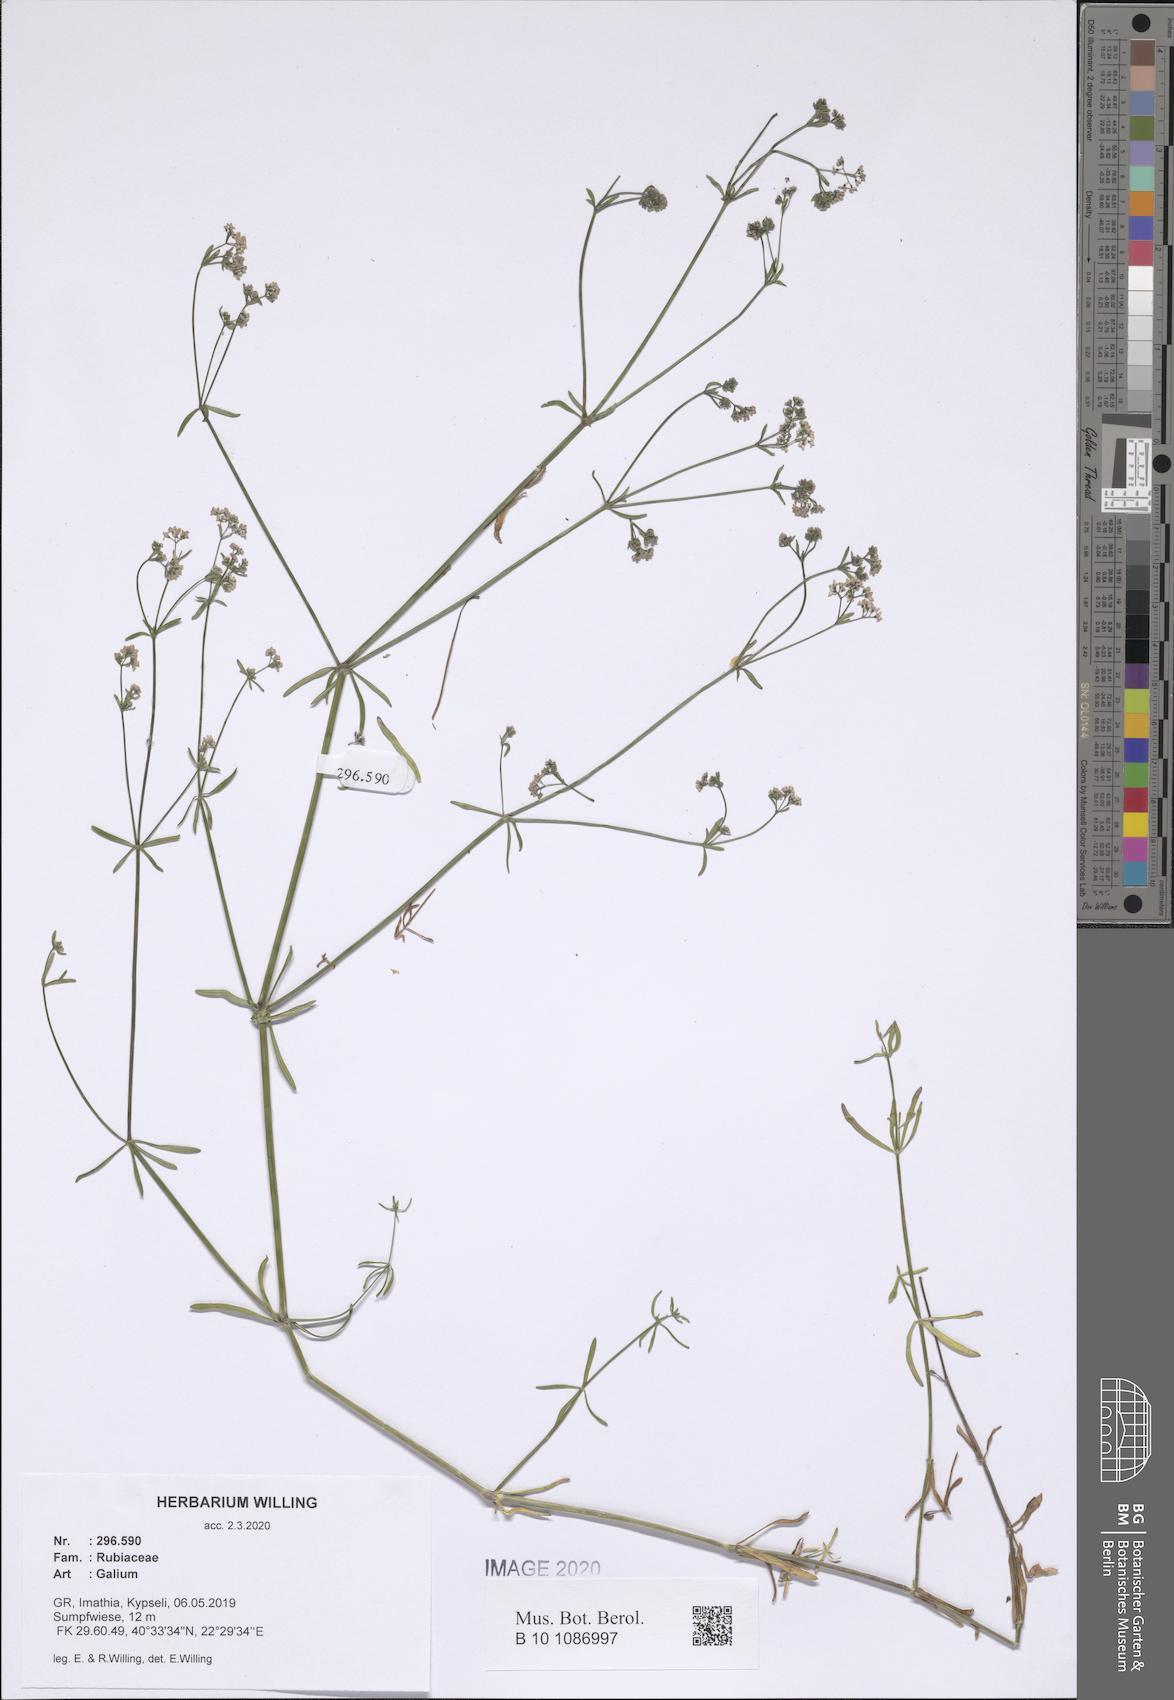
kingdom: Plantae
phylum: Tracheophyta
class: Magnoliopsida
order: Gentianales
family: Rubiaceae
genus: Galium
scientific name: Galium
